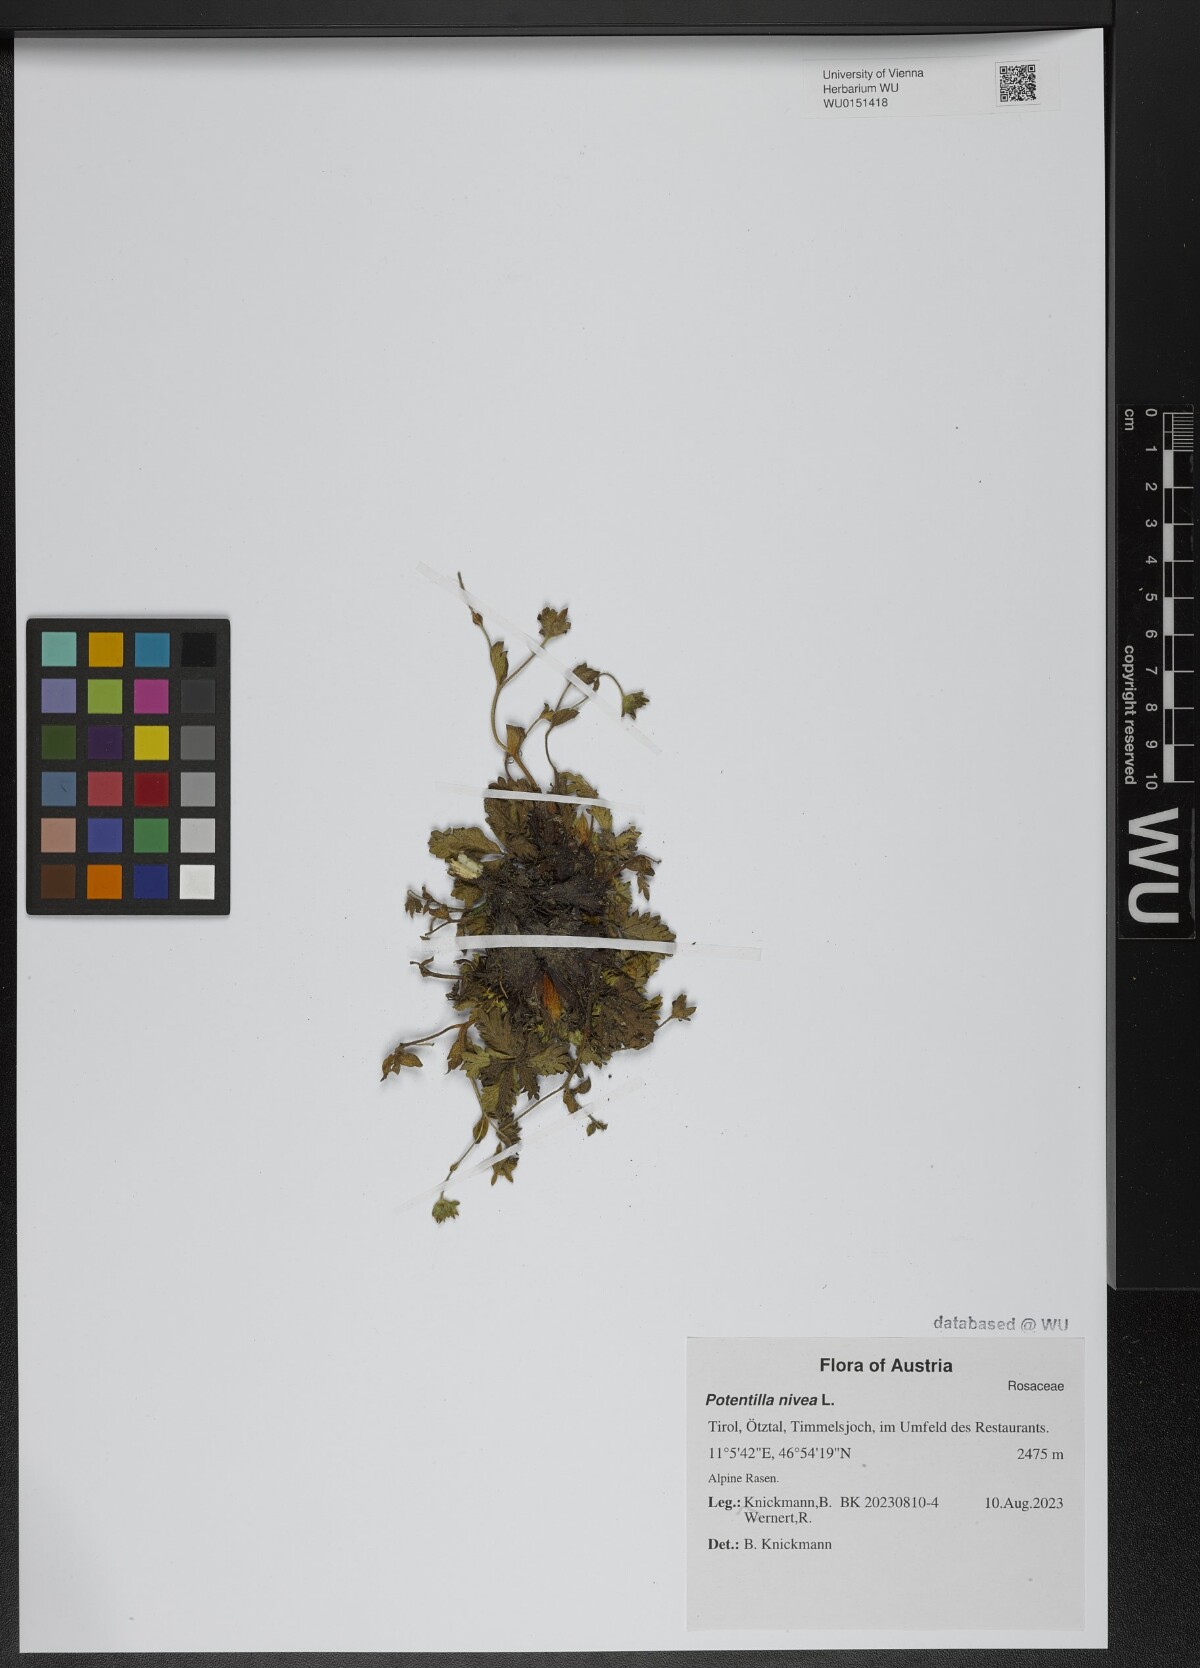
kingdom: Plantae
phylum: Tracheophyta
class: Magnoliopsida
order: Rosales
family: Rosaceae
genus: Potentilla
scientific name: Potentilla nivea
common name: Snow cinquefoil
